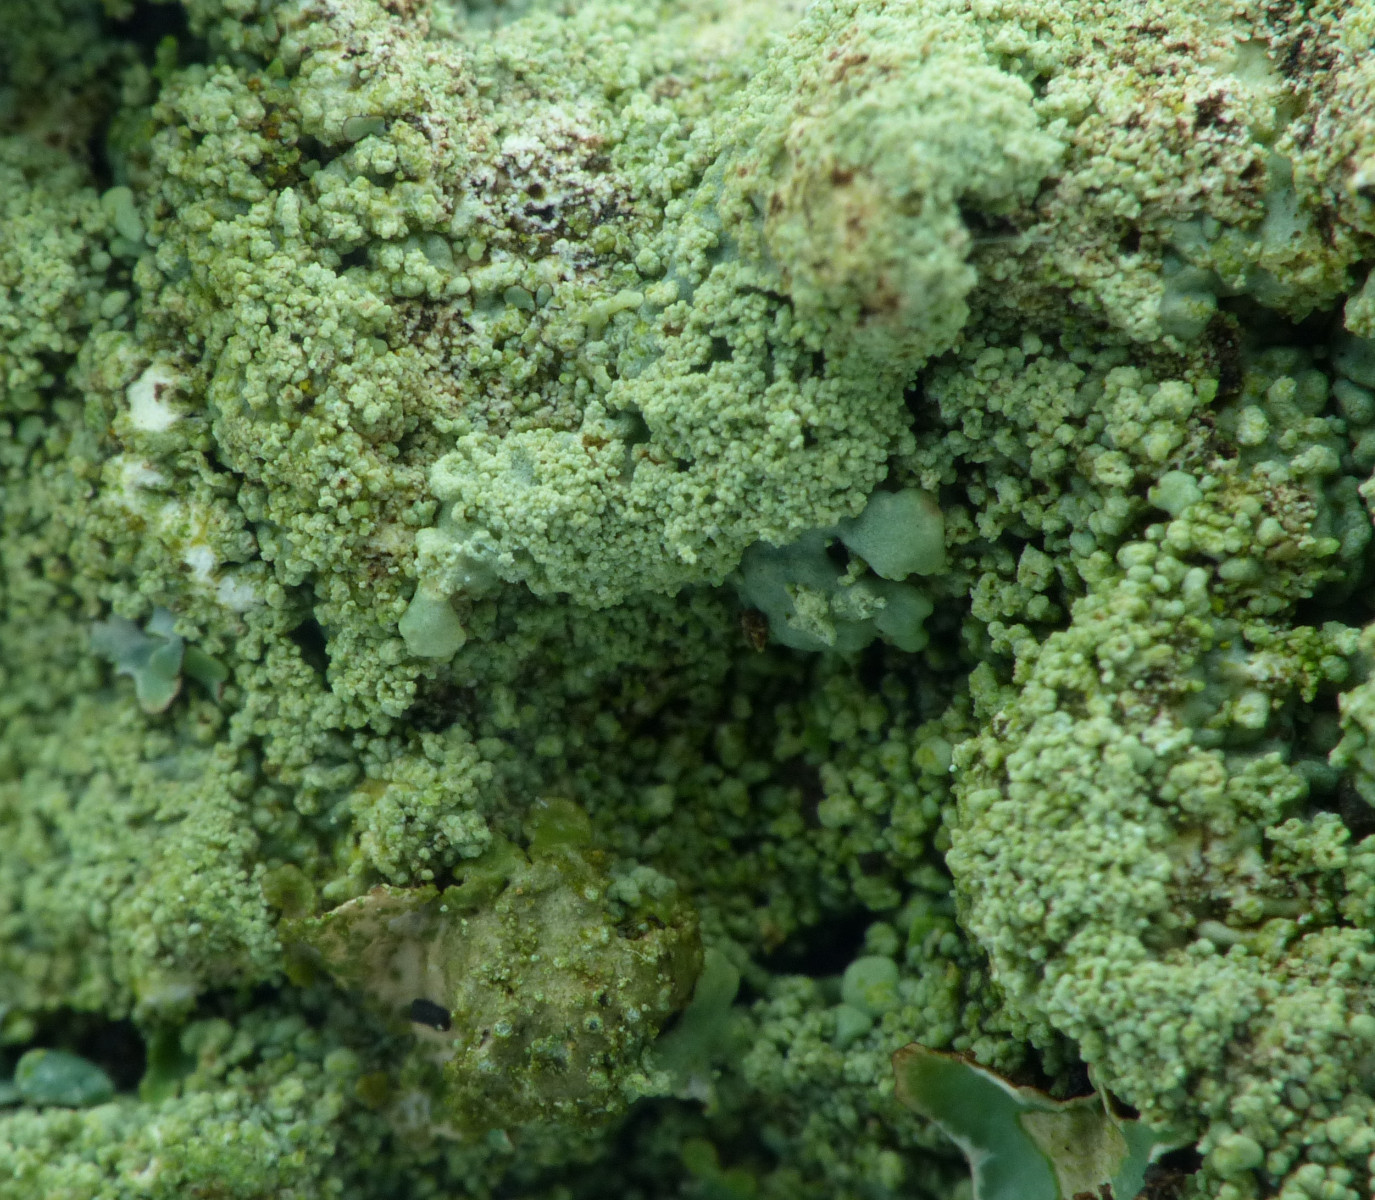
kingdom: Fungi
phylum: Ascomycota
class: Lecanoromycetes
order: Lecanorales
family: Parmeliaceae
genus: Flavoparmelia
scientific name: Flavoparmelia caperata
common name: gulgrøn skållav
